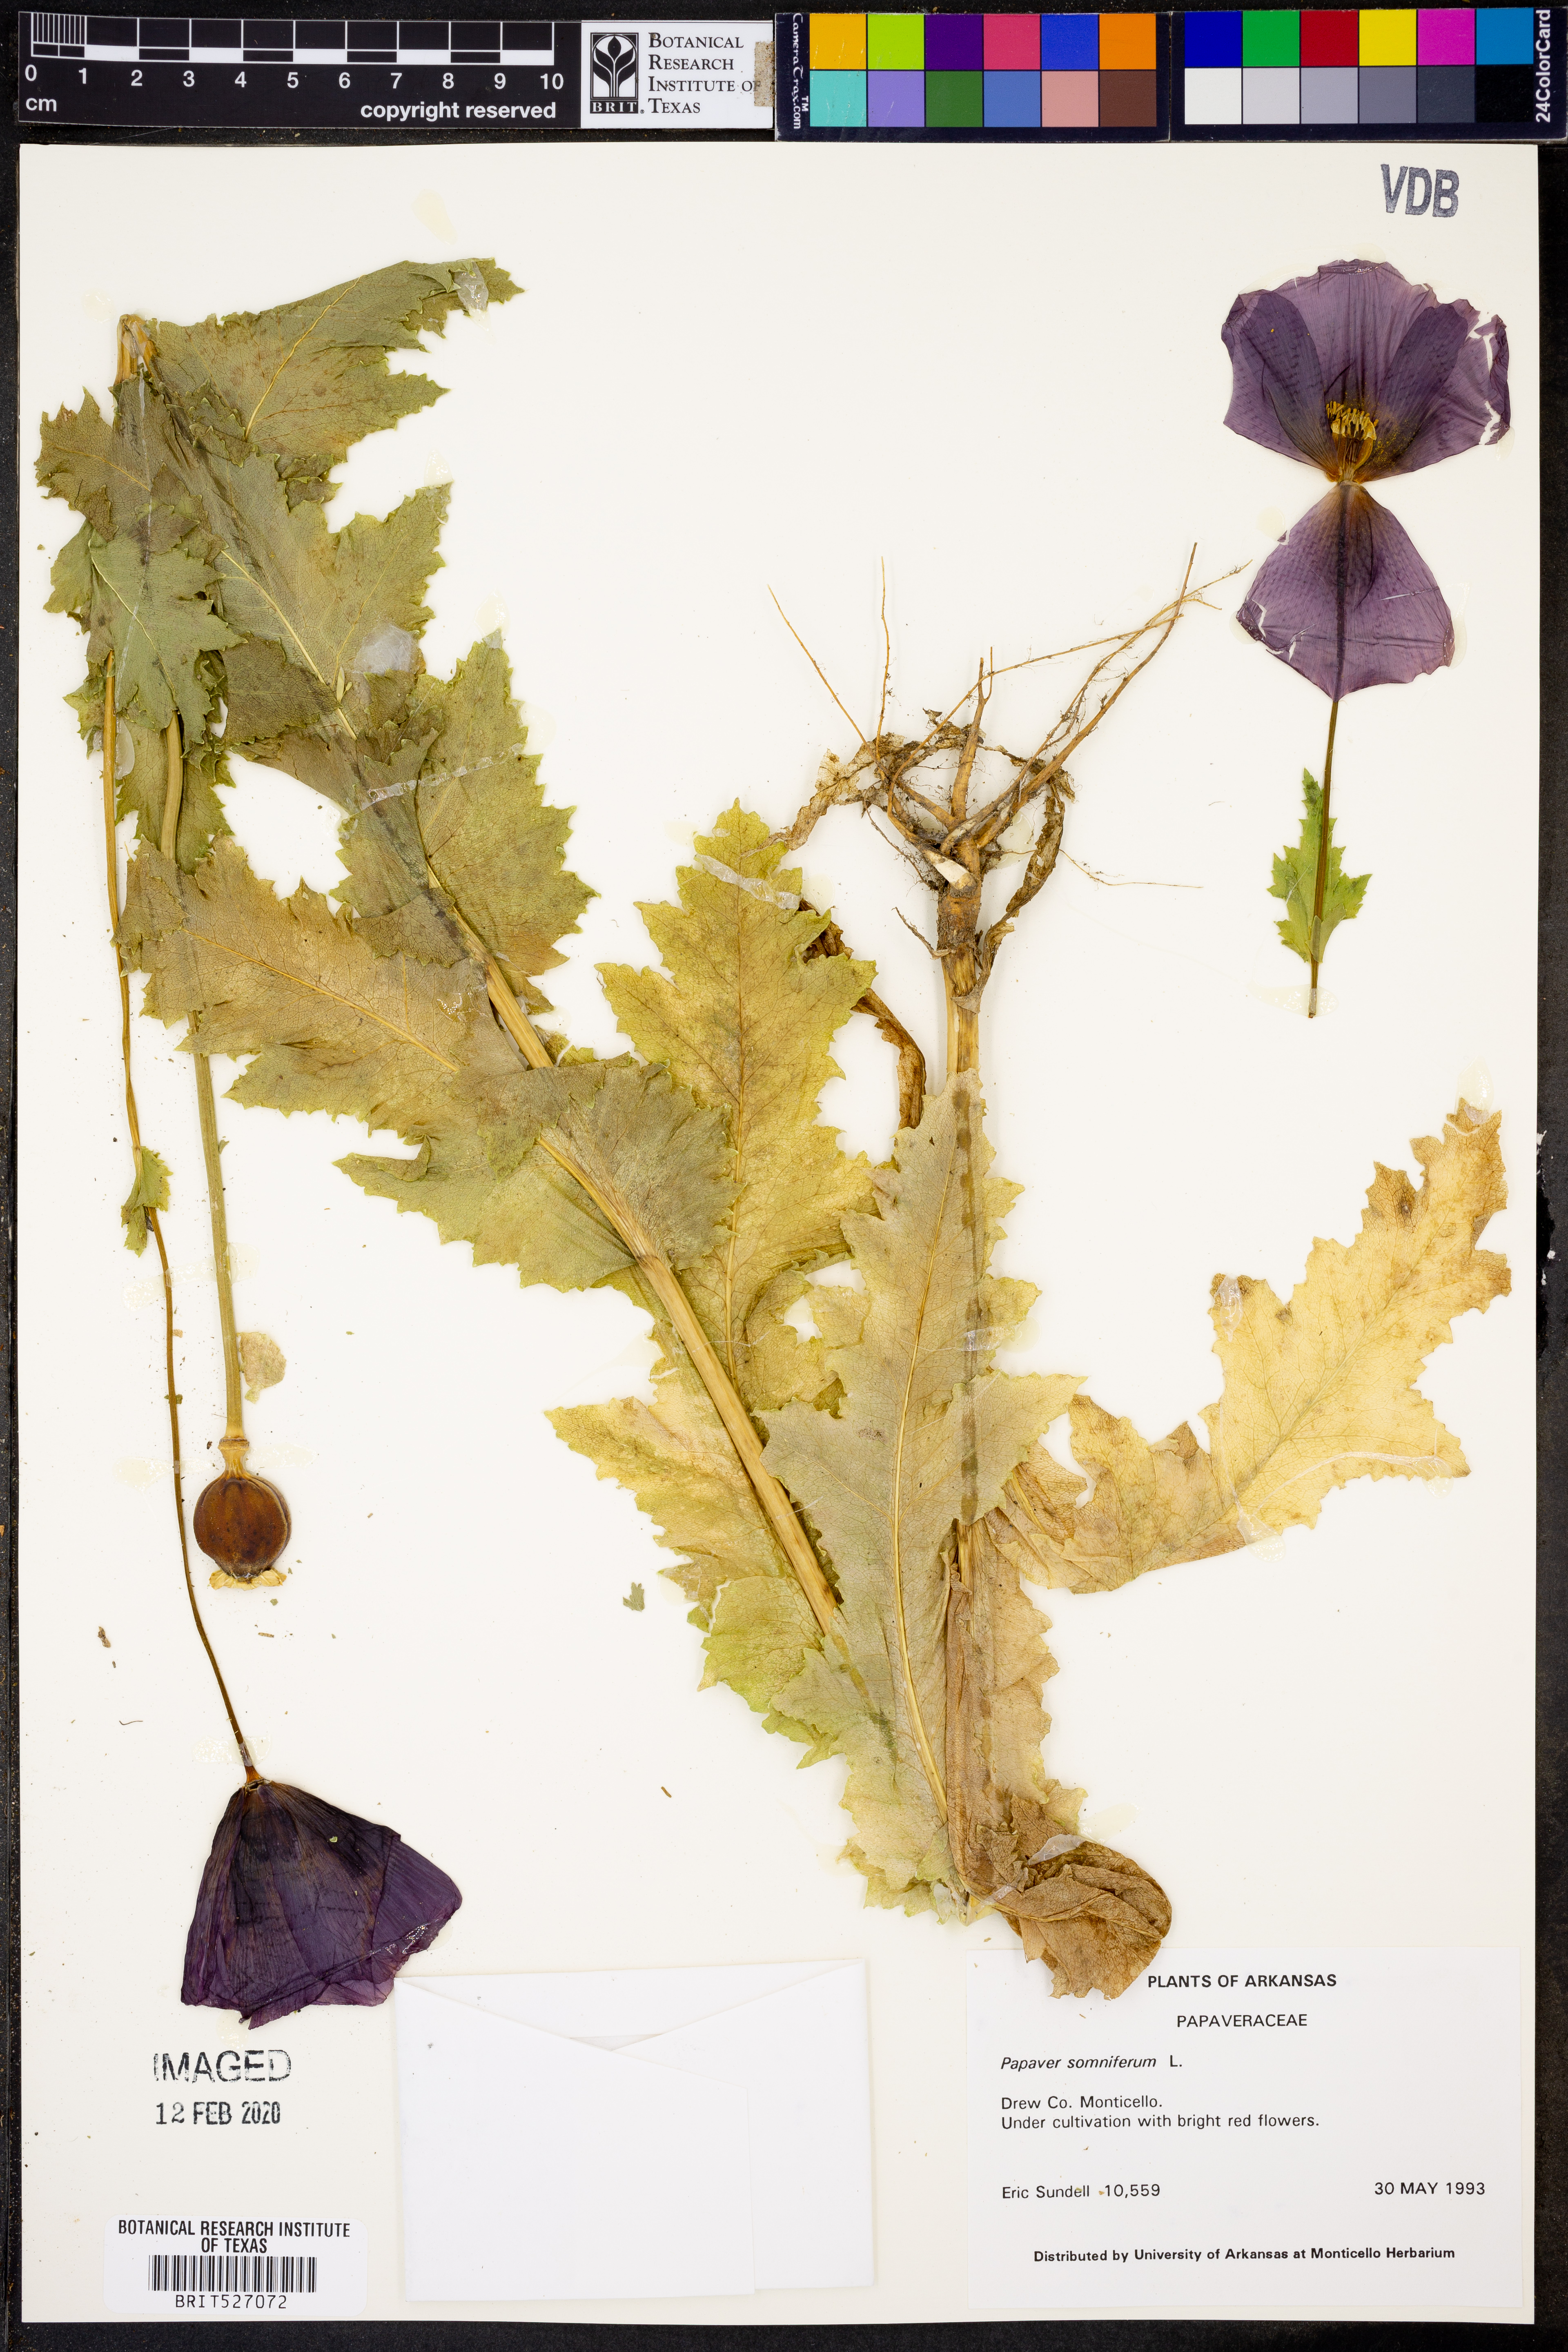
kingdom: Plantae
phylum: Tracheophyta
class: Magnoliopsida
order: Ranunculales
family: Papaveraceae
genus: Papaver
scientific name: Papaver somniferum
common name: Opium poppy
